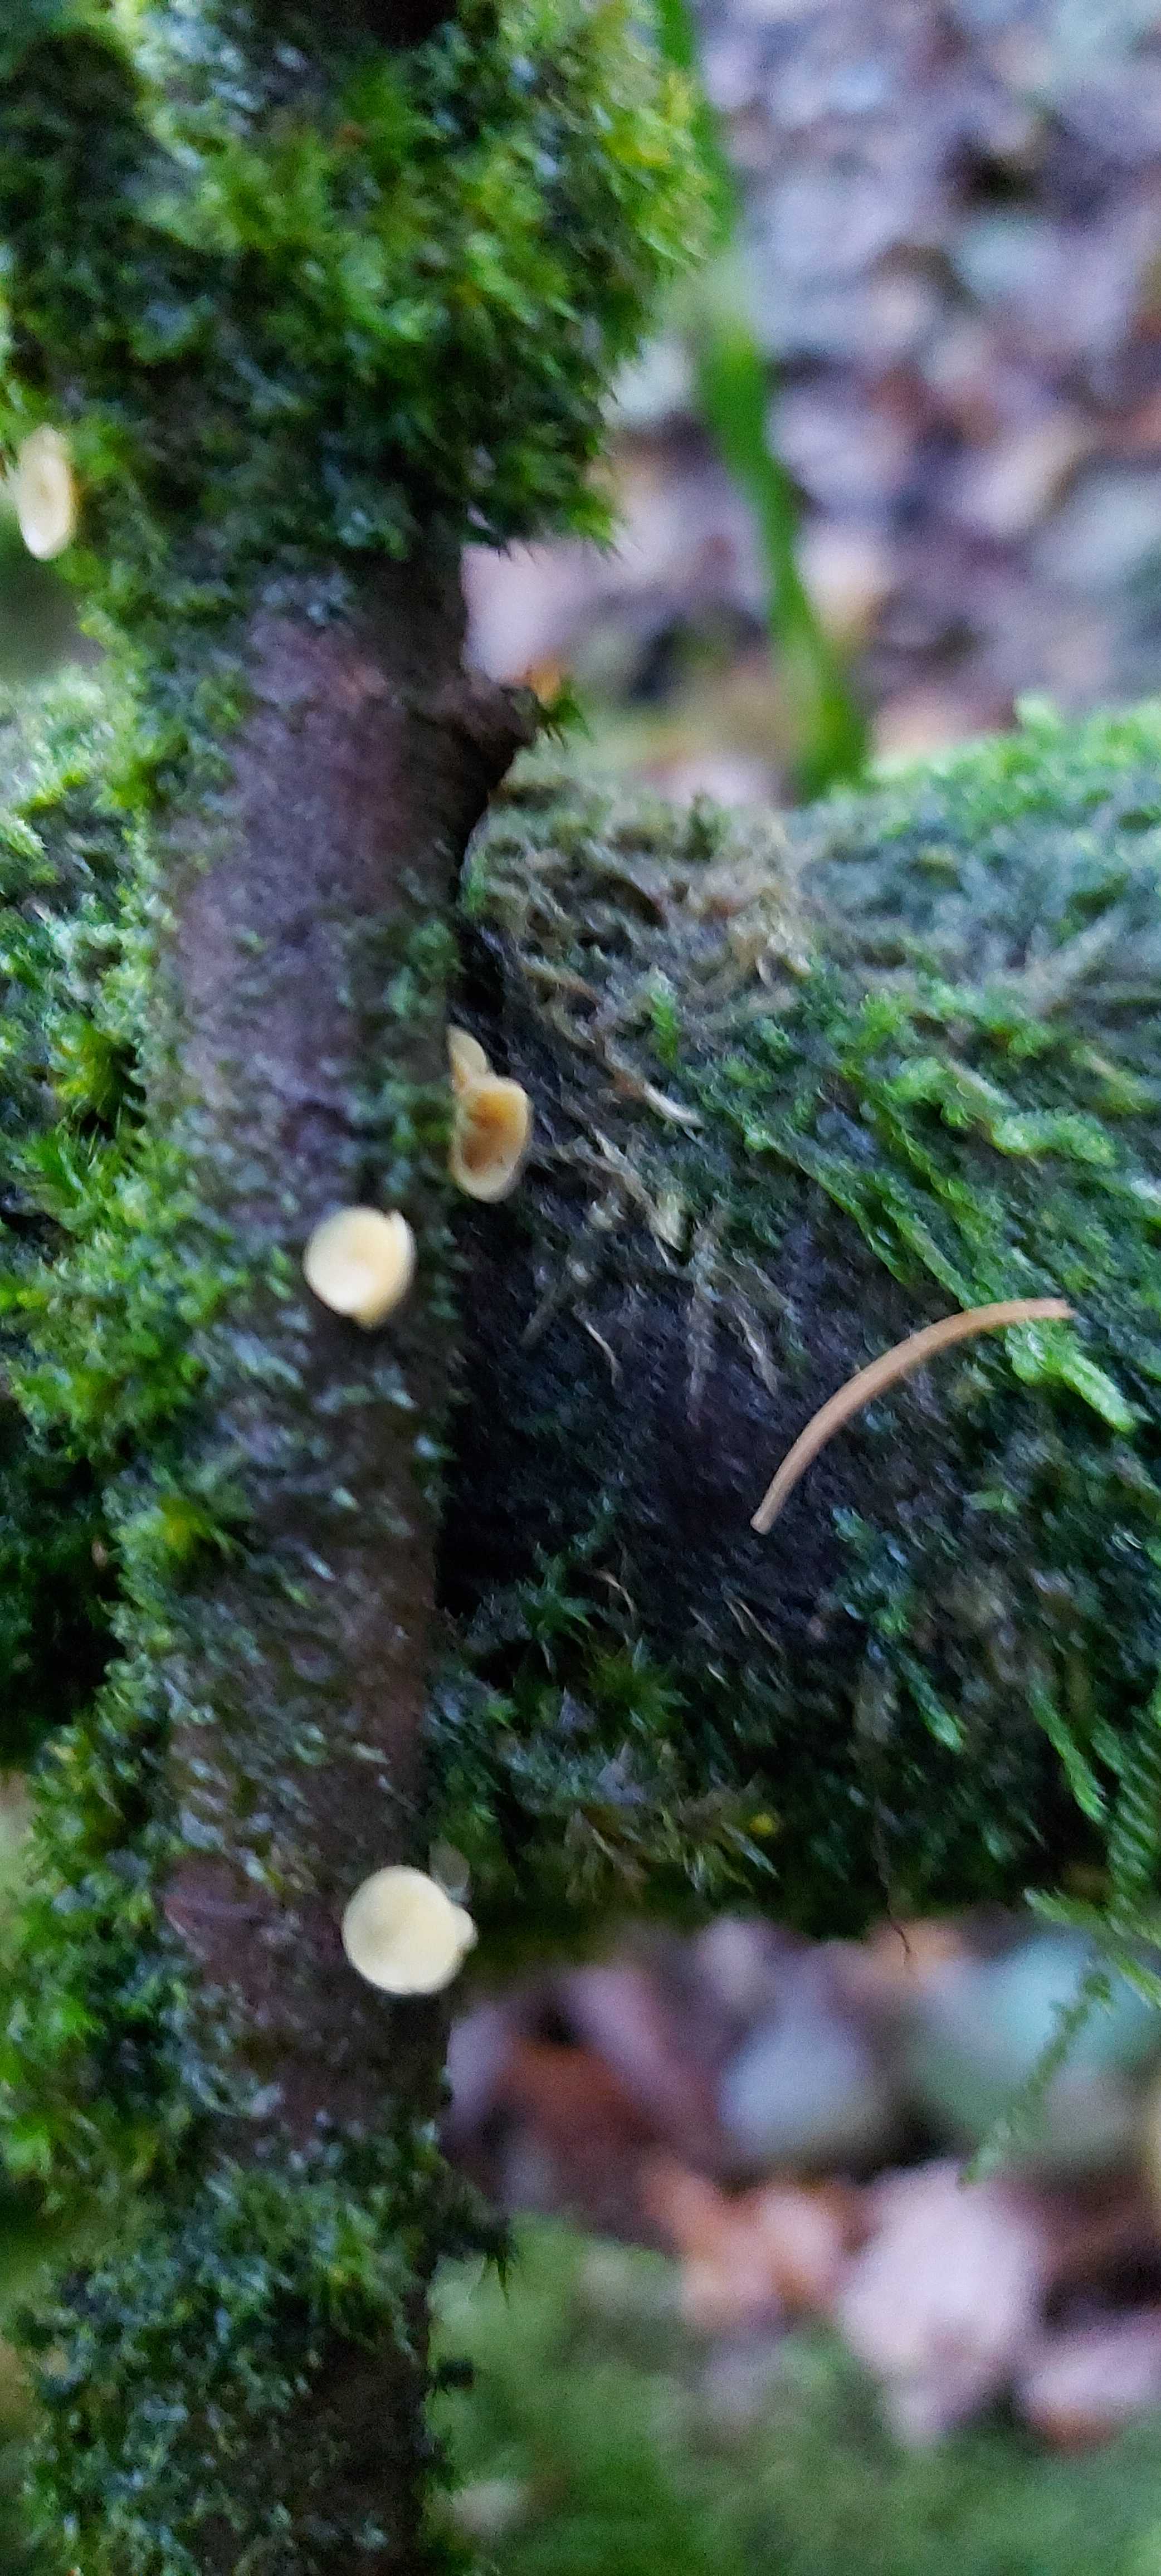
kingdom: Fungi
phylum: Ascomycota
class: Leotiomycetes
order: Helotiales
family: Helotiaceae
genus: Hymenoscyphus
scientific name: Hymenoscyphus
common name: stilkskive
